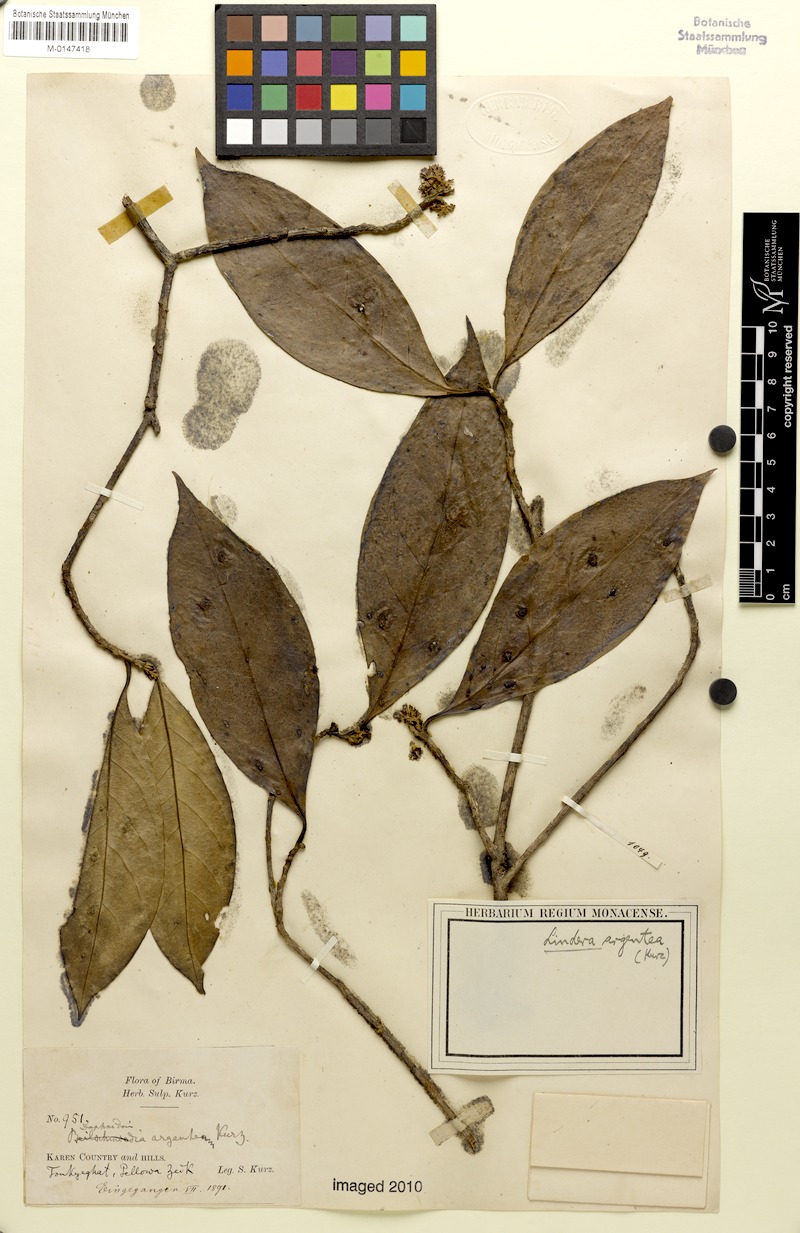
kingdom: Plantae
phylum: Tracheophyta
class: Magnoliopsida
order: Laurales
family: Lauraceae
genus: Beilschmiedia
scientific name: Beilschmiedia argentata
